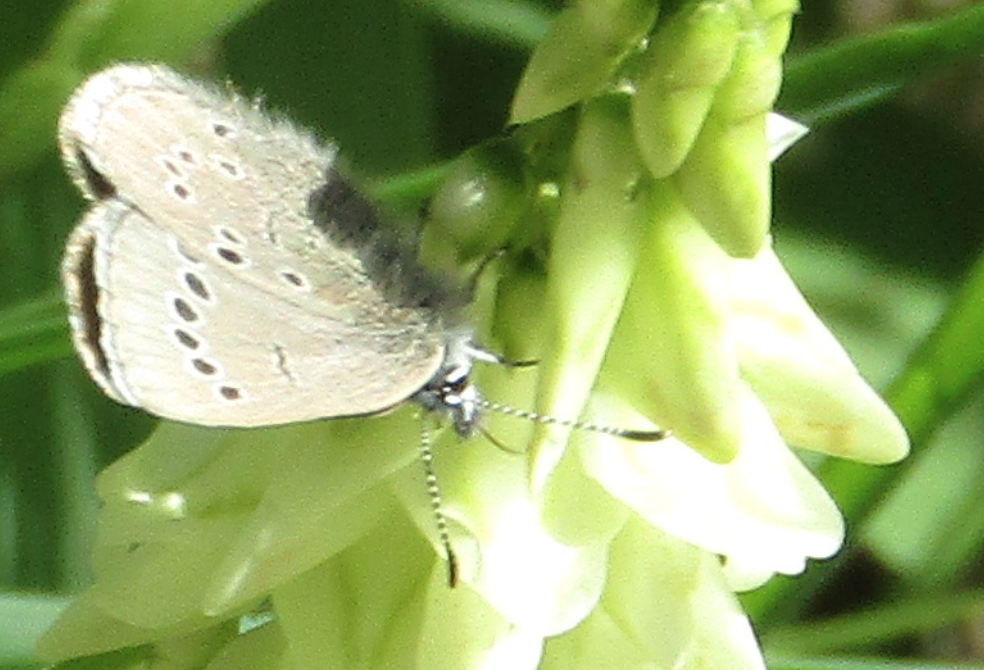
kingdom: Animalia
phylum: Arthropoda
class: Insecta
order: Lepidoptera
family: Lycaenidae
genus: Glaucopsyche
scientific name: Glaucopsyche lygdamus
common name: Silvery Blue
